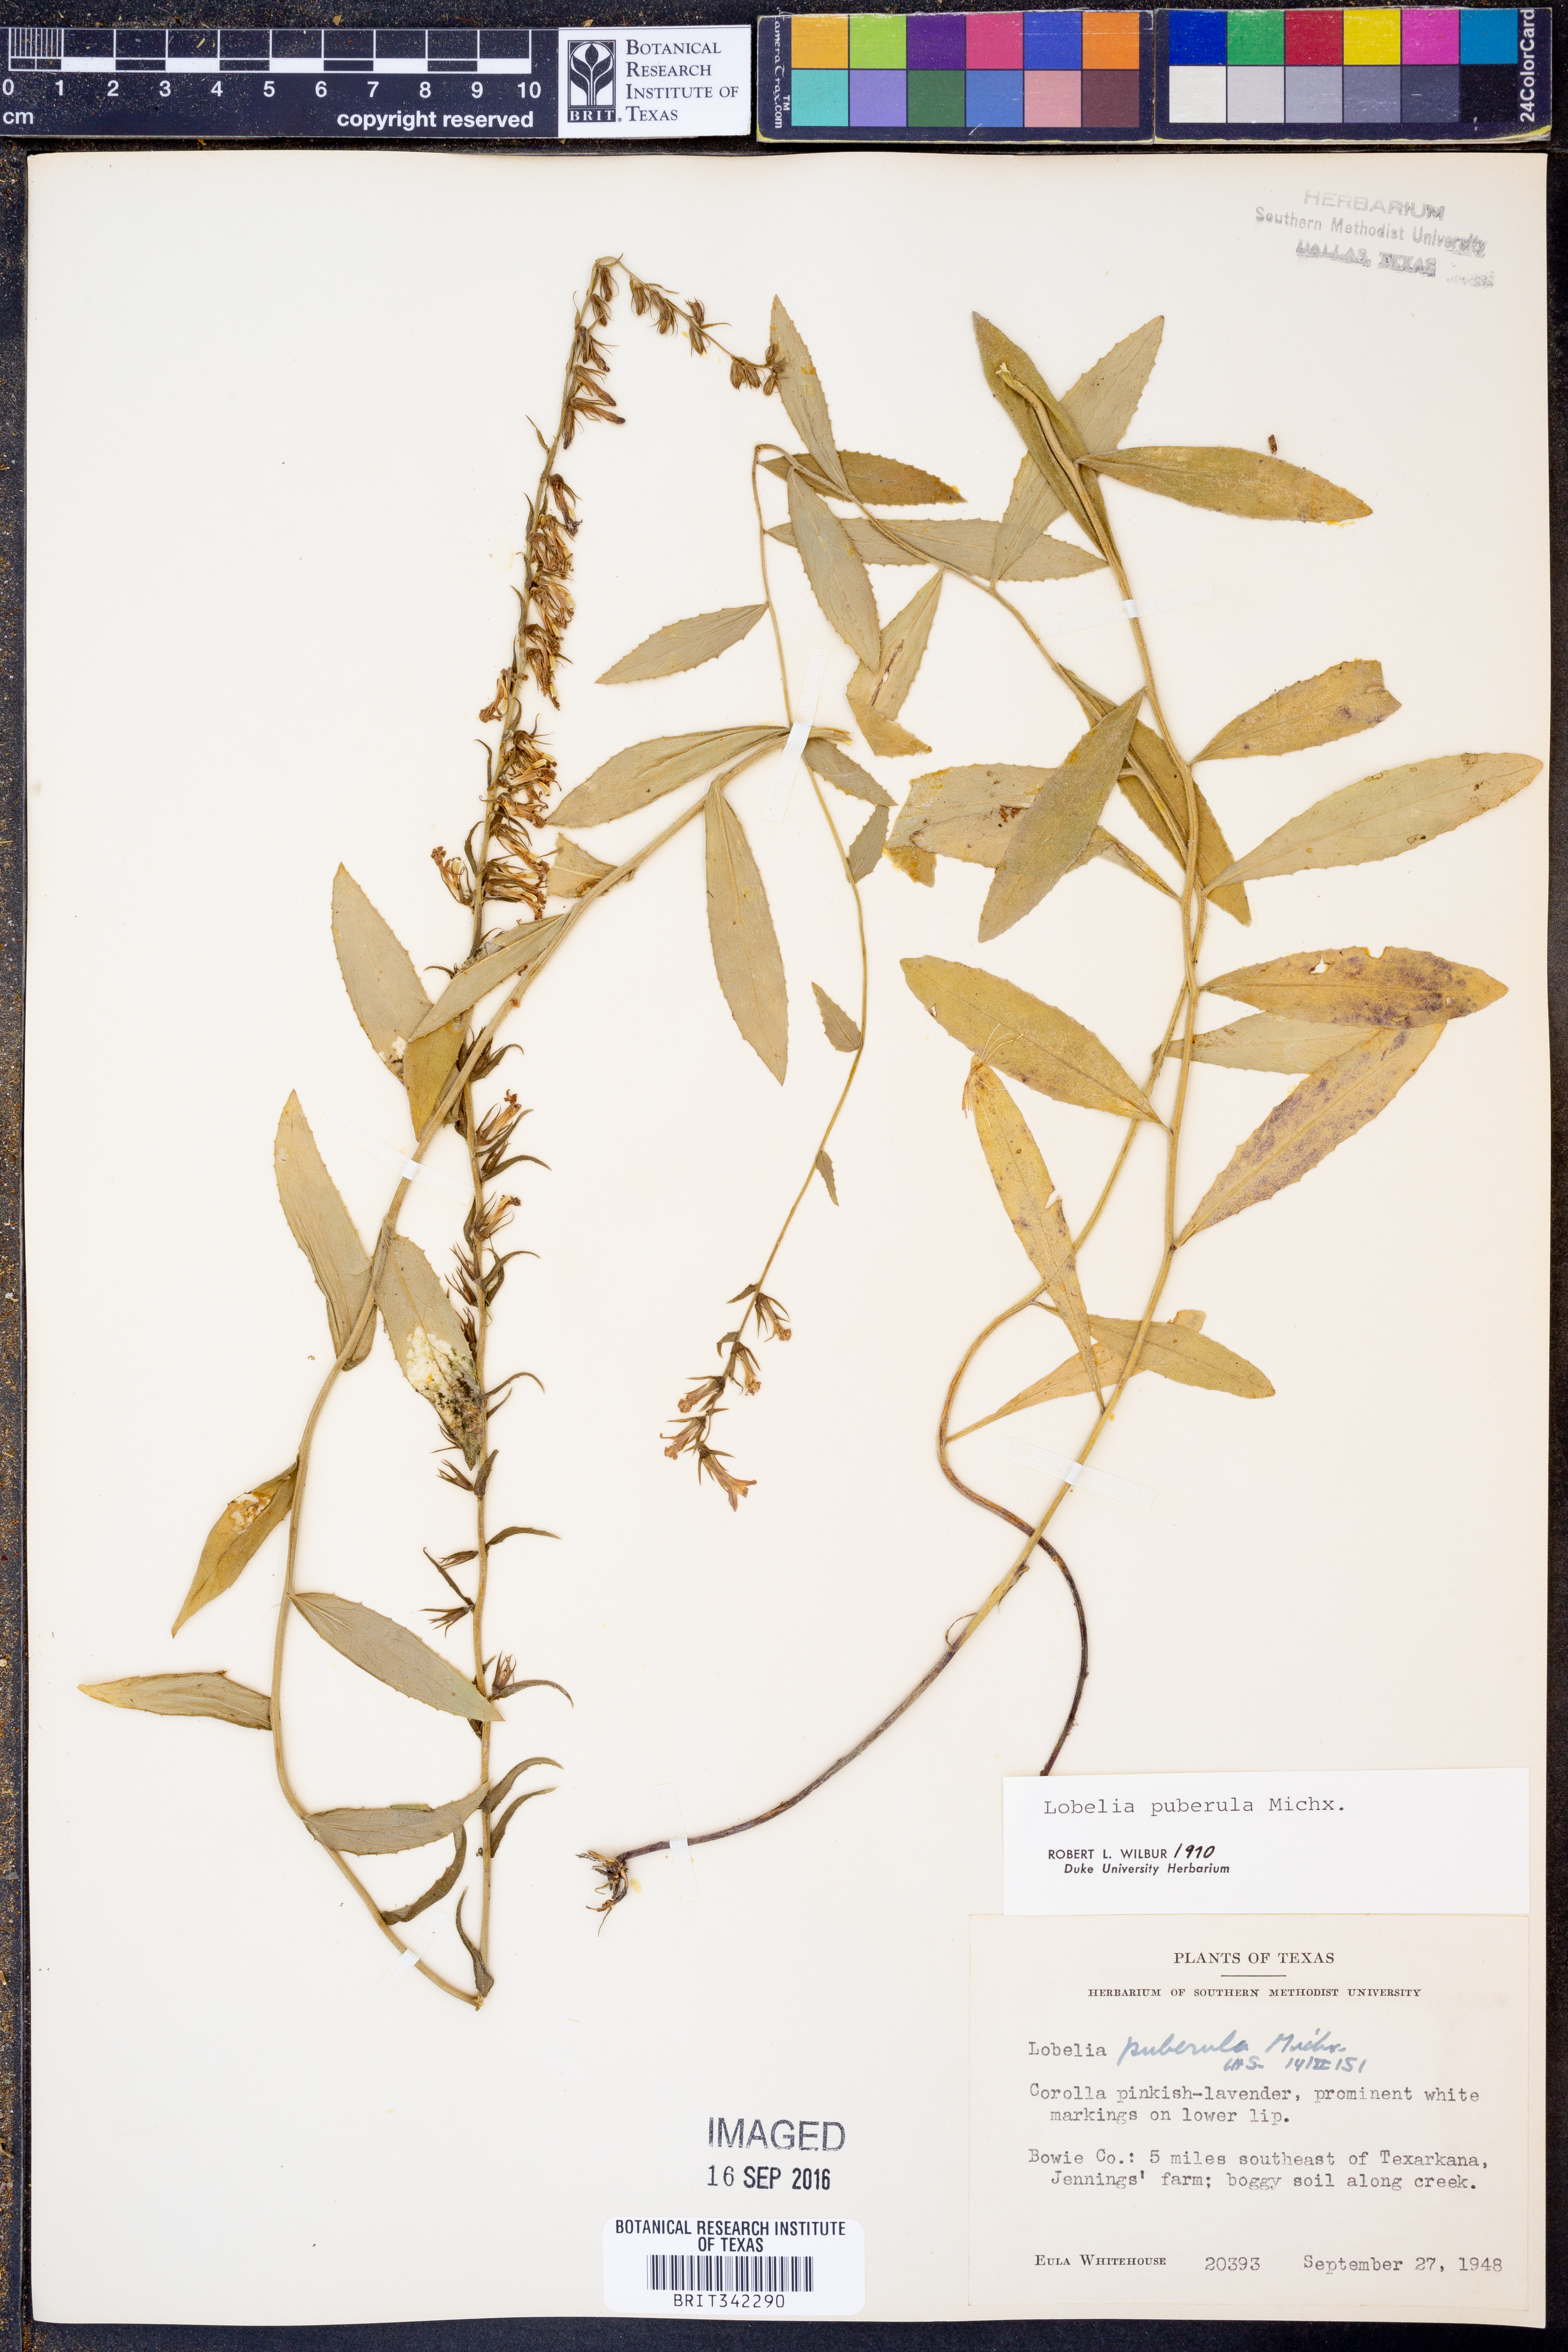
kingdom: Plantae
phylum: Tracheophyta
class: Magnoliopsida
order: Asterales
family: Campanulaceae
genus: Lobelia
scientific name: Lobelia puberula
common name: Purple dewdrop
